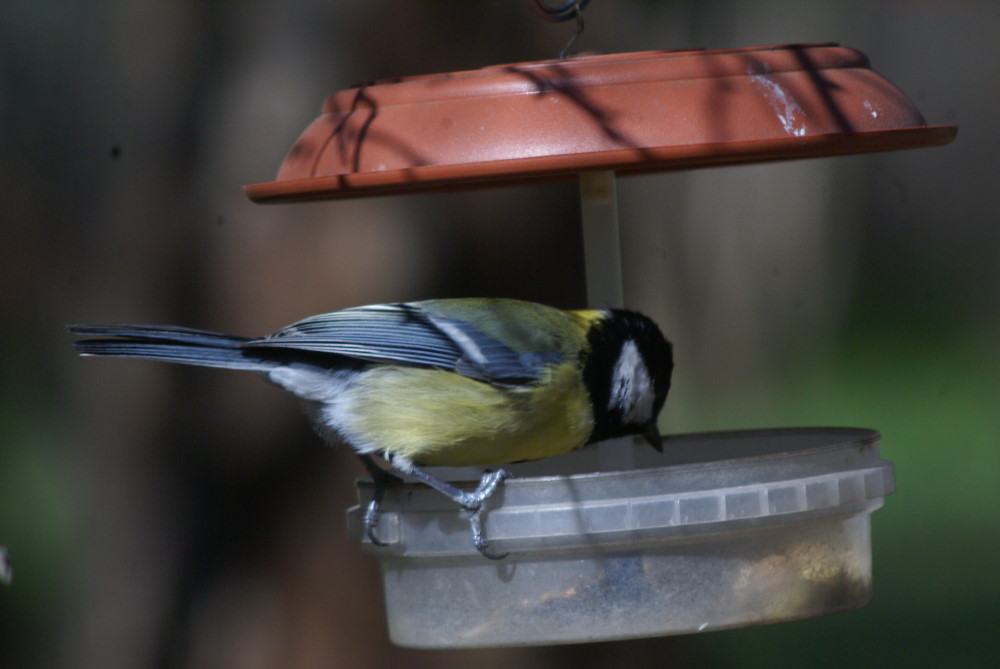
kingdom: Animalia
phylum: Chordata
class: Aves
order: Passeriformes
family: Paridae
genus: Parus
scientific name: Parus major
